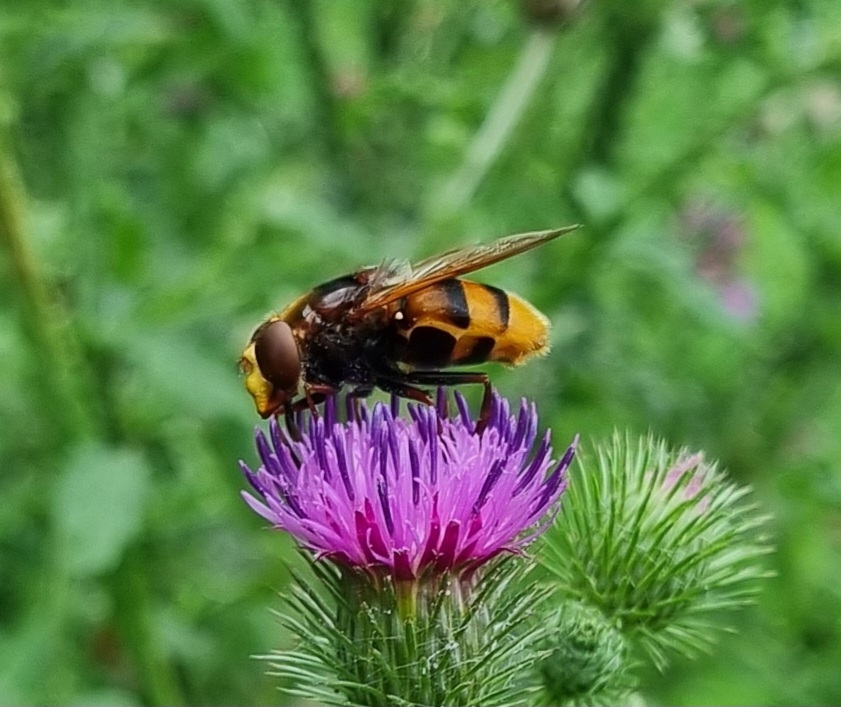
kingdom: Animalia
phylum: Arthropoda
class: Insecta
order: Diptera
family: Syrphidae
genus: Volucella
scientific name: Volucella zonaria
